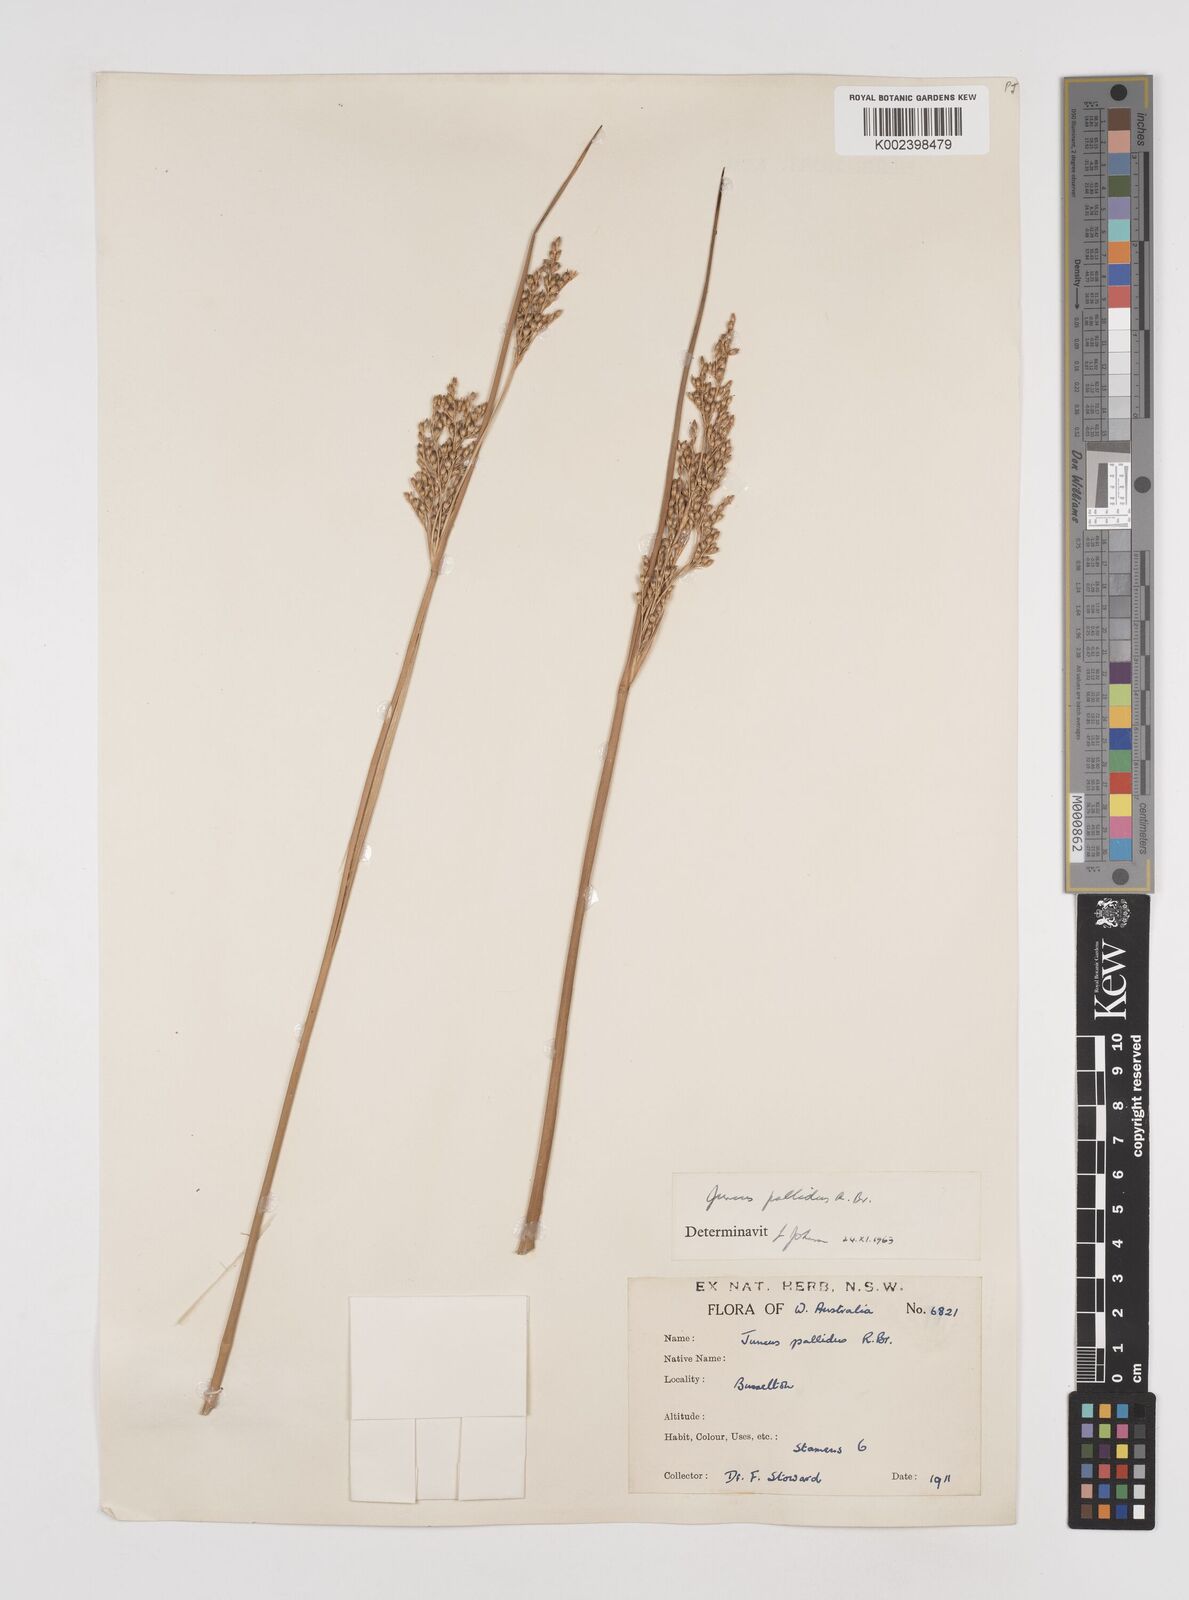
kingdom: Plantae
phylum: Tracheophyta
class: Liliopsida
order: Poales
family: Juncaceae
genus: Juncus
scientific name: Juncus pallidus
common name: Great soft-rush
